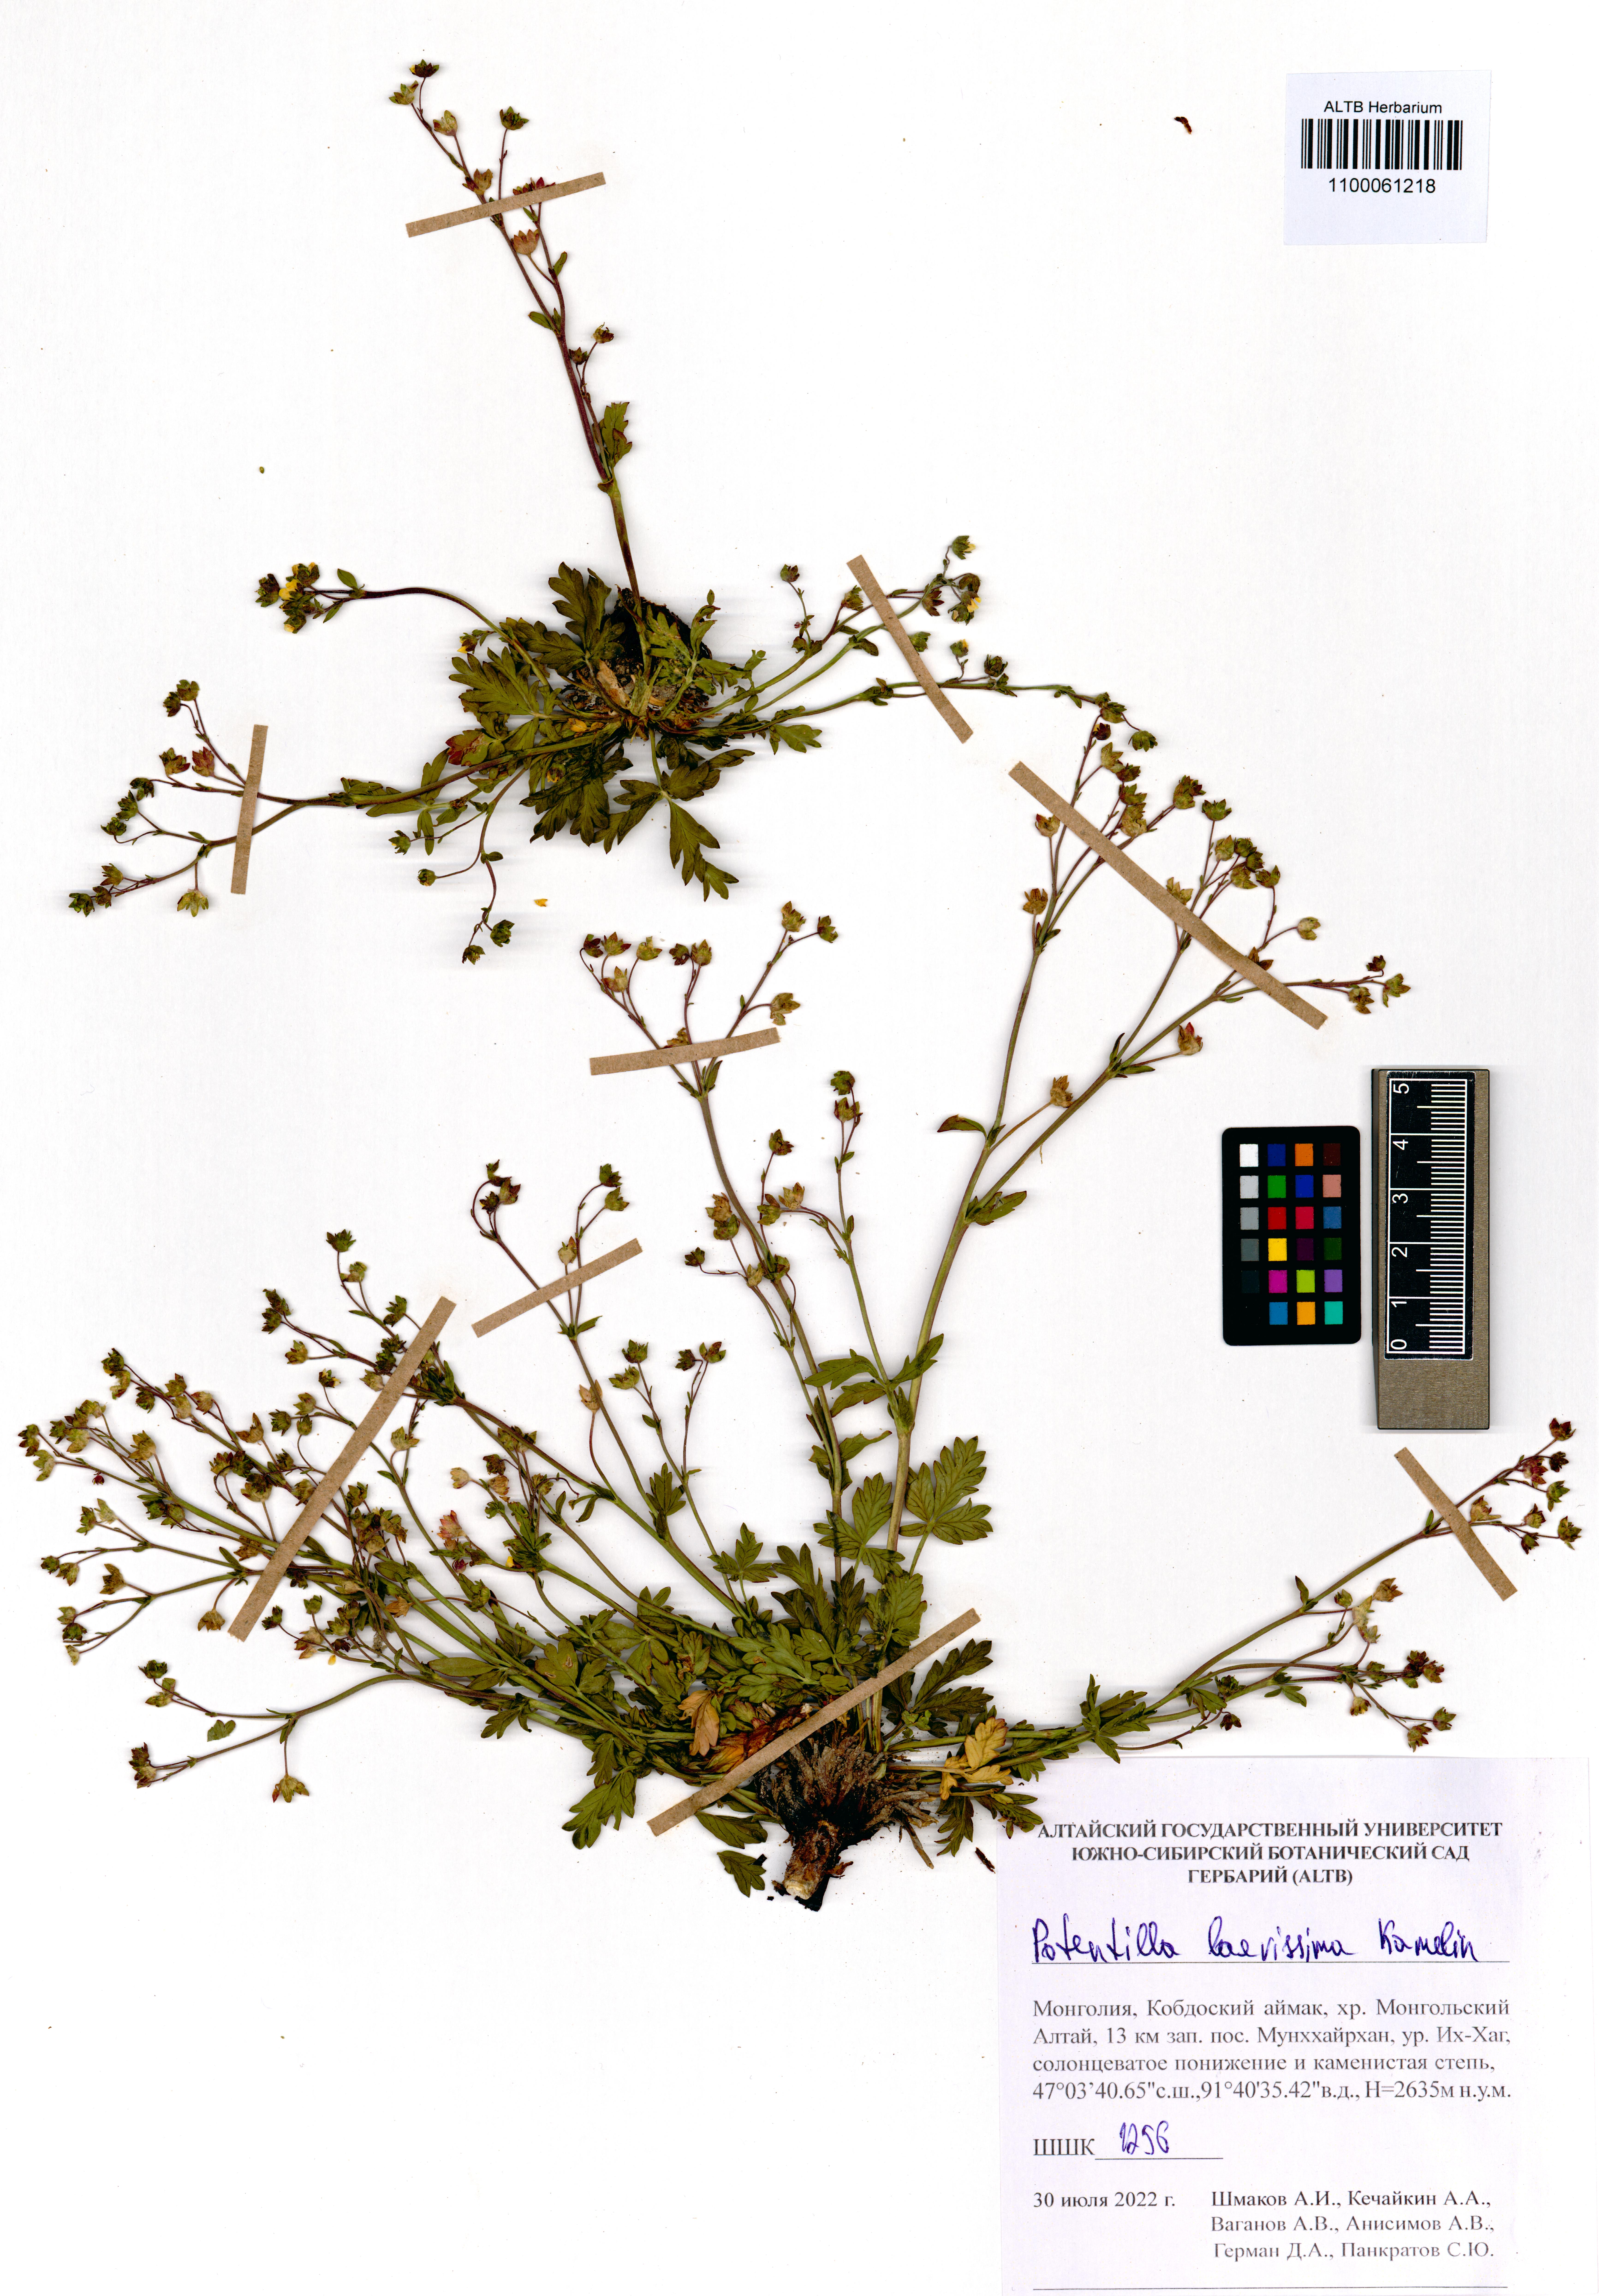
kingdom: Plantae
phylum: Tracheophyta
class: Magnoliopsida
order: Rosales
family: Rosaceae
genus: Potentilla
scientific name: Potentilla laevissima
